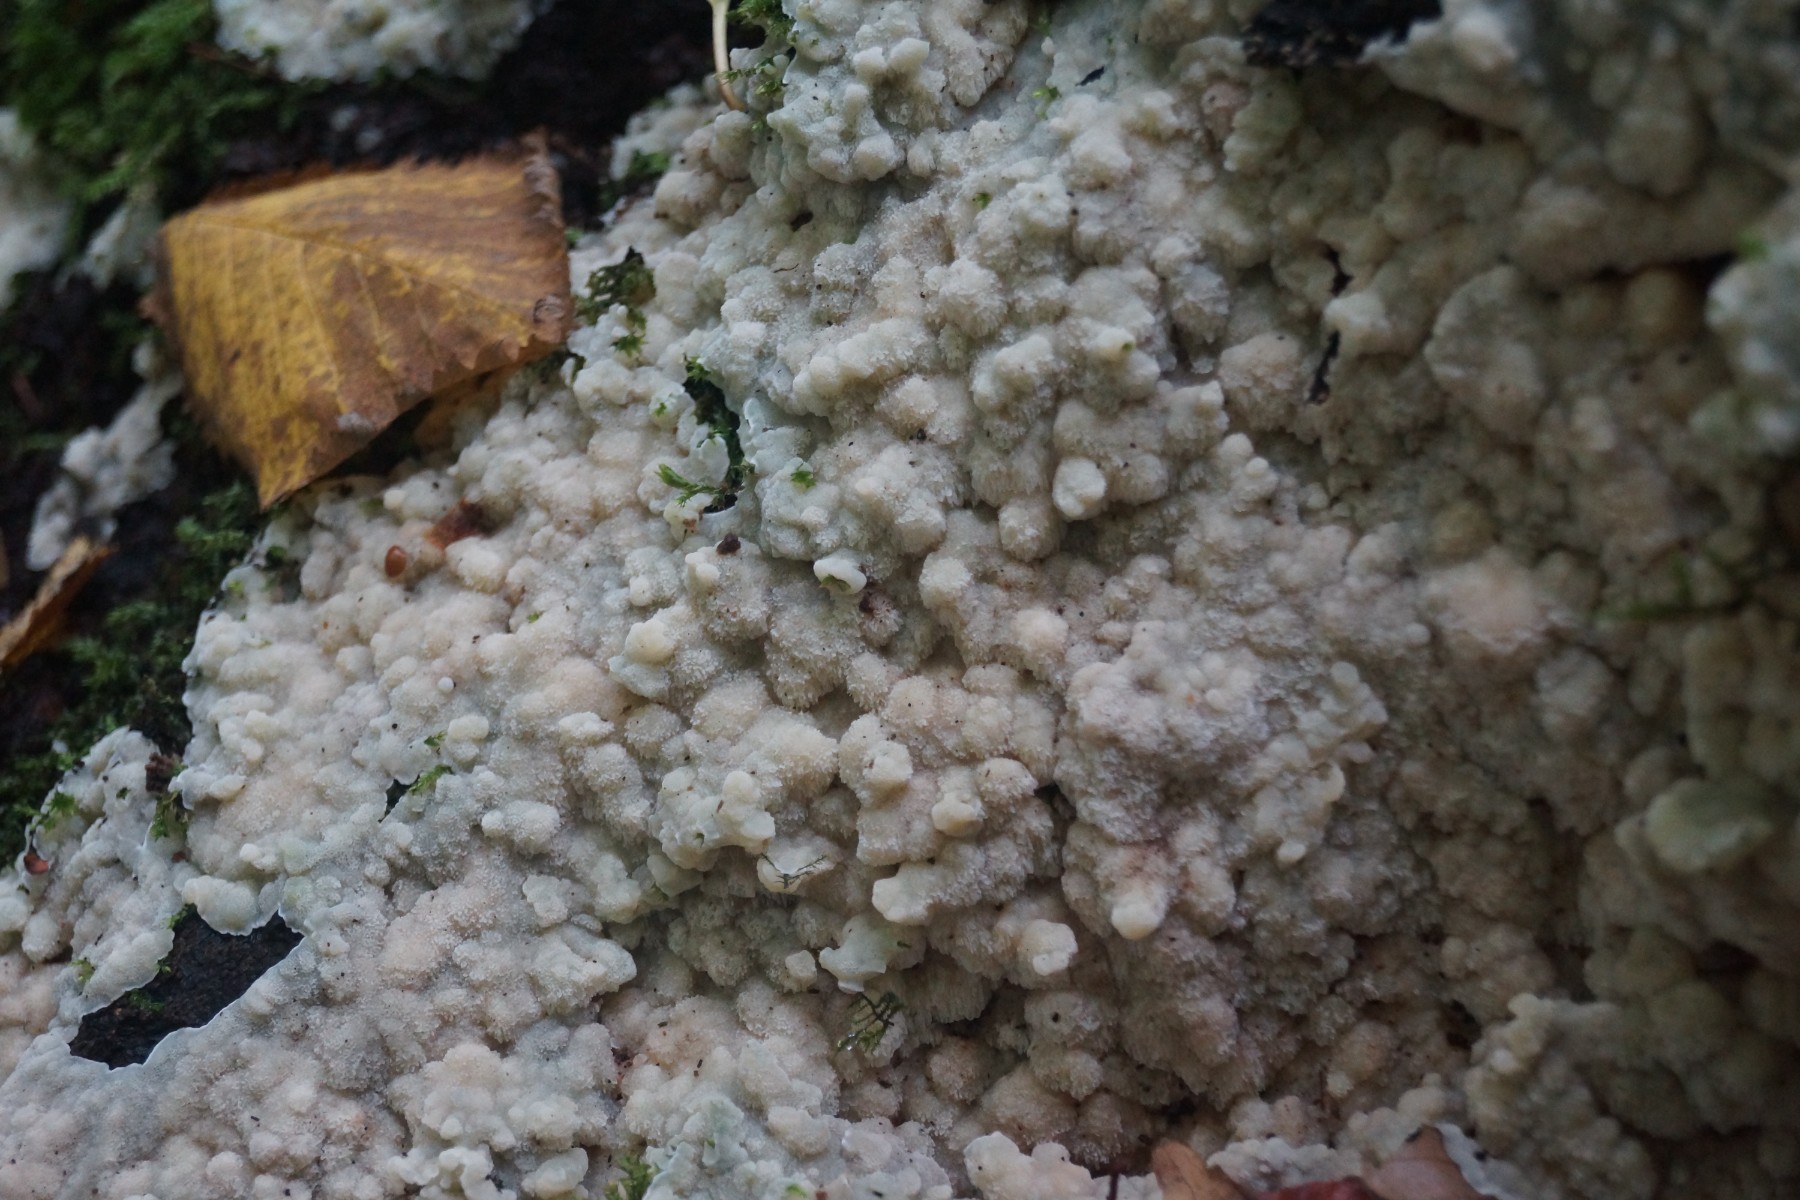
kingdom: Fungi
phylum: Basidiomycota
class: Agaricomycetes
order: Polyporales
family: Meruliaceae
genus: Physisporinus
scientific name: Physisporinus vitreus
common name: mastesvamp
